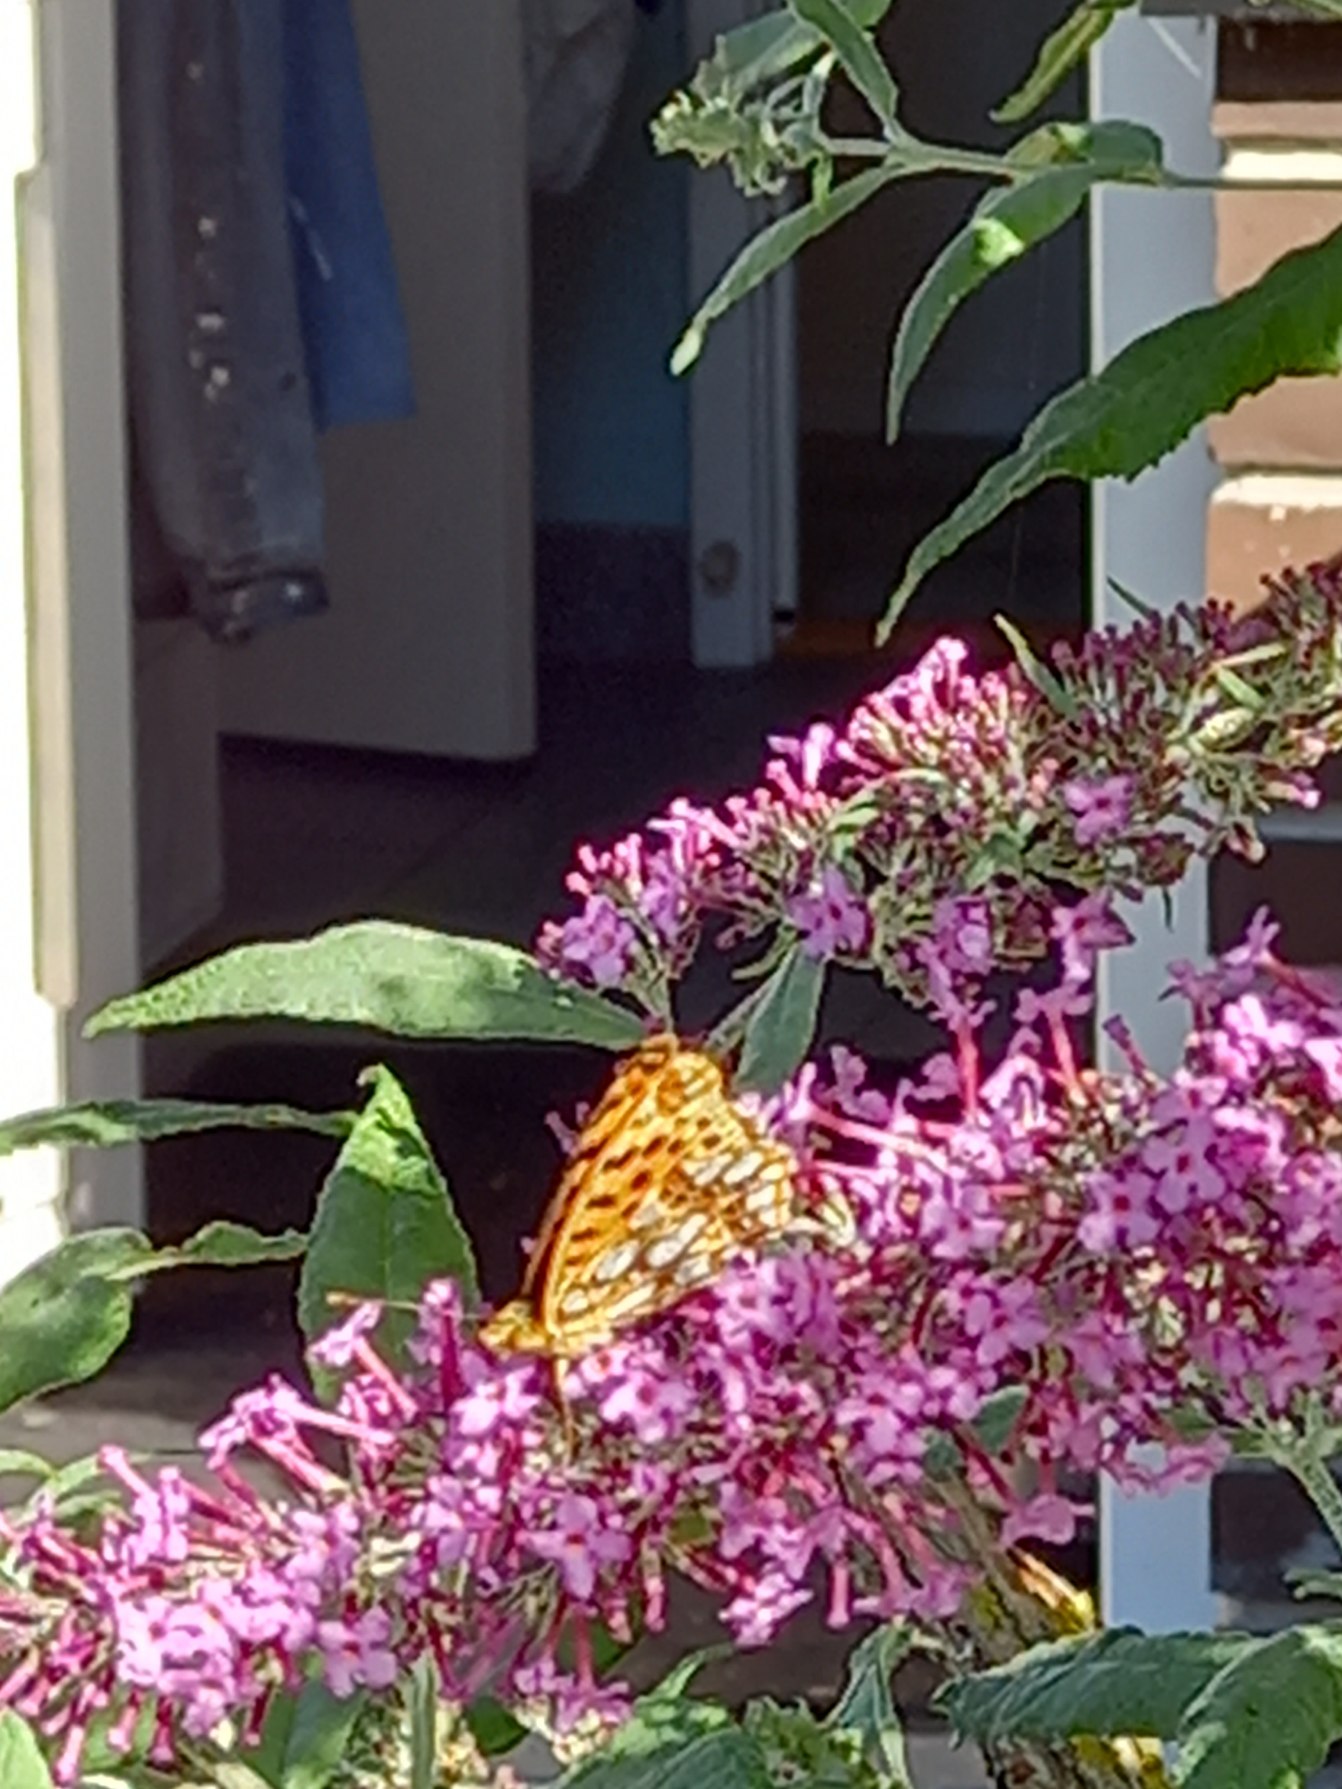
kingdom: Animalia
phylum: Arthropoda
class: Insecta
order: Lepidoptera
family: Nymphalidae
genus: Issoria
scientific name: Issoria lathonia
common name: Storplettet perlemorsommerfugl
